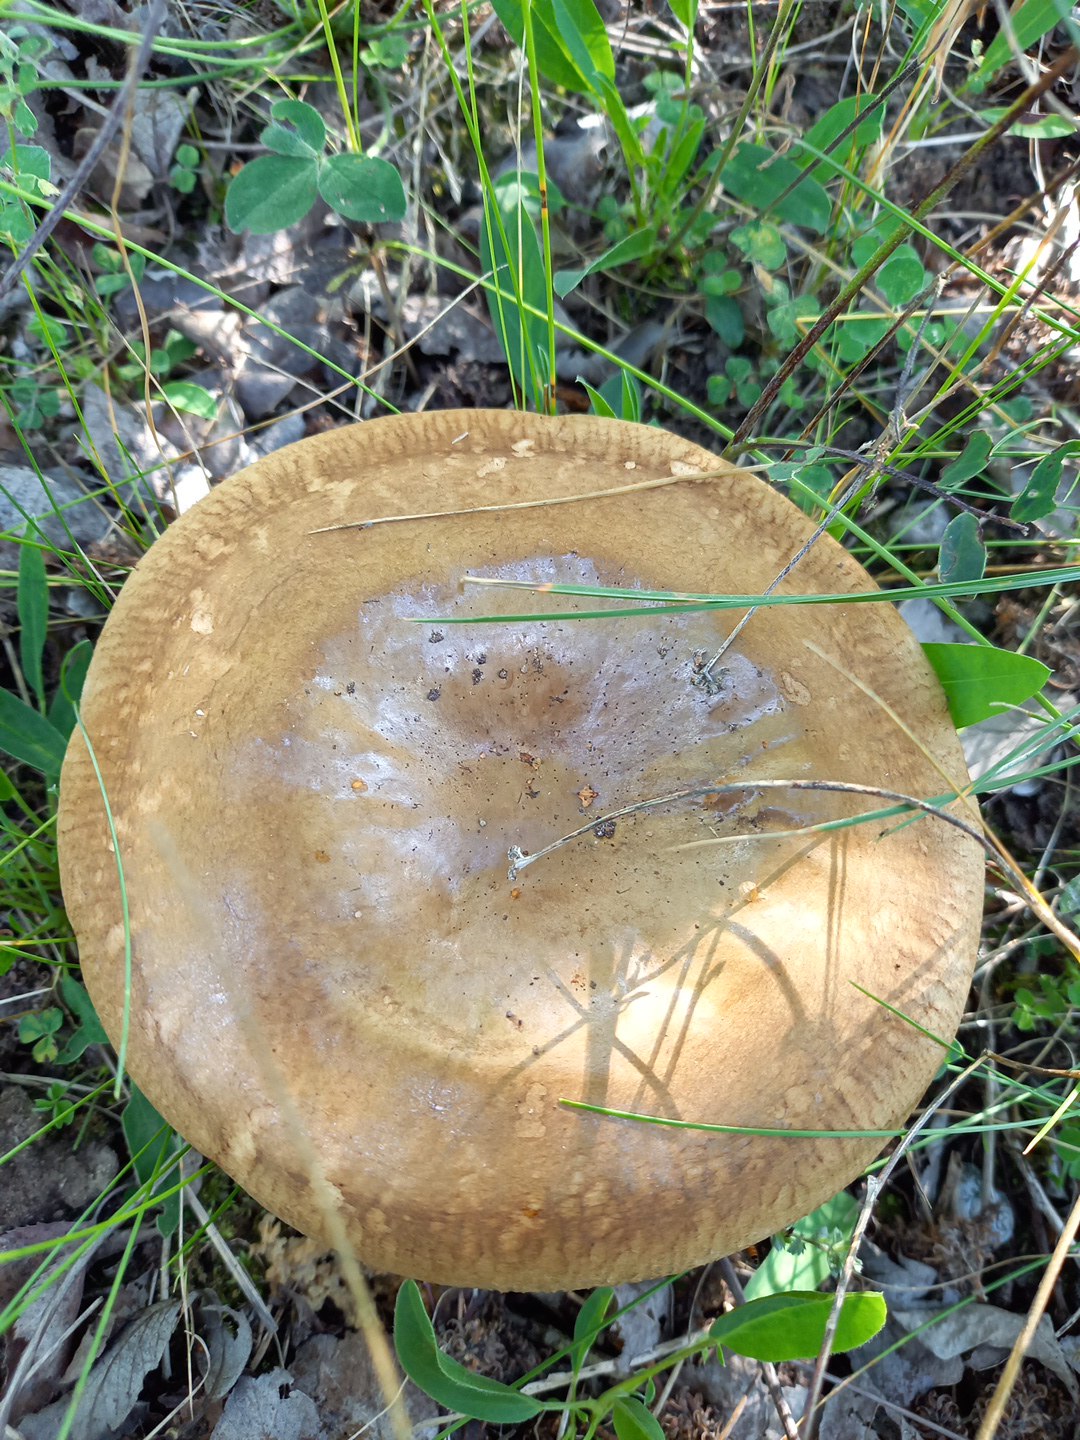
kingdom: Fungi
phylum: Basidiomycota
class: Agaricomycetes
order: Boletales
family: Paxillaceae
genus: Paxillus
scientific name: Paxillus obscurisporus
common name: mahognisporet netbladhat
